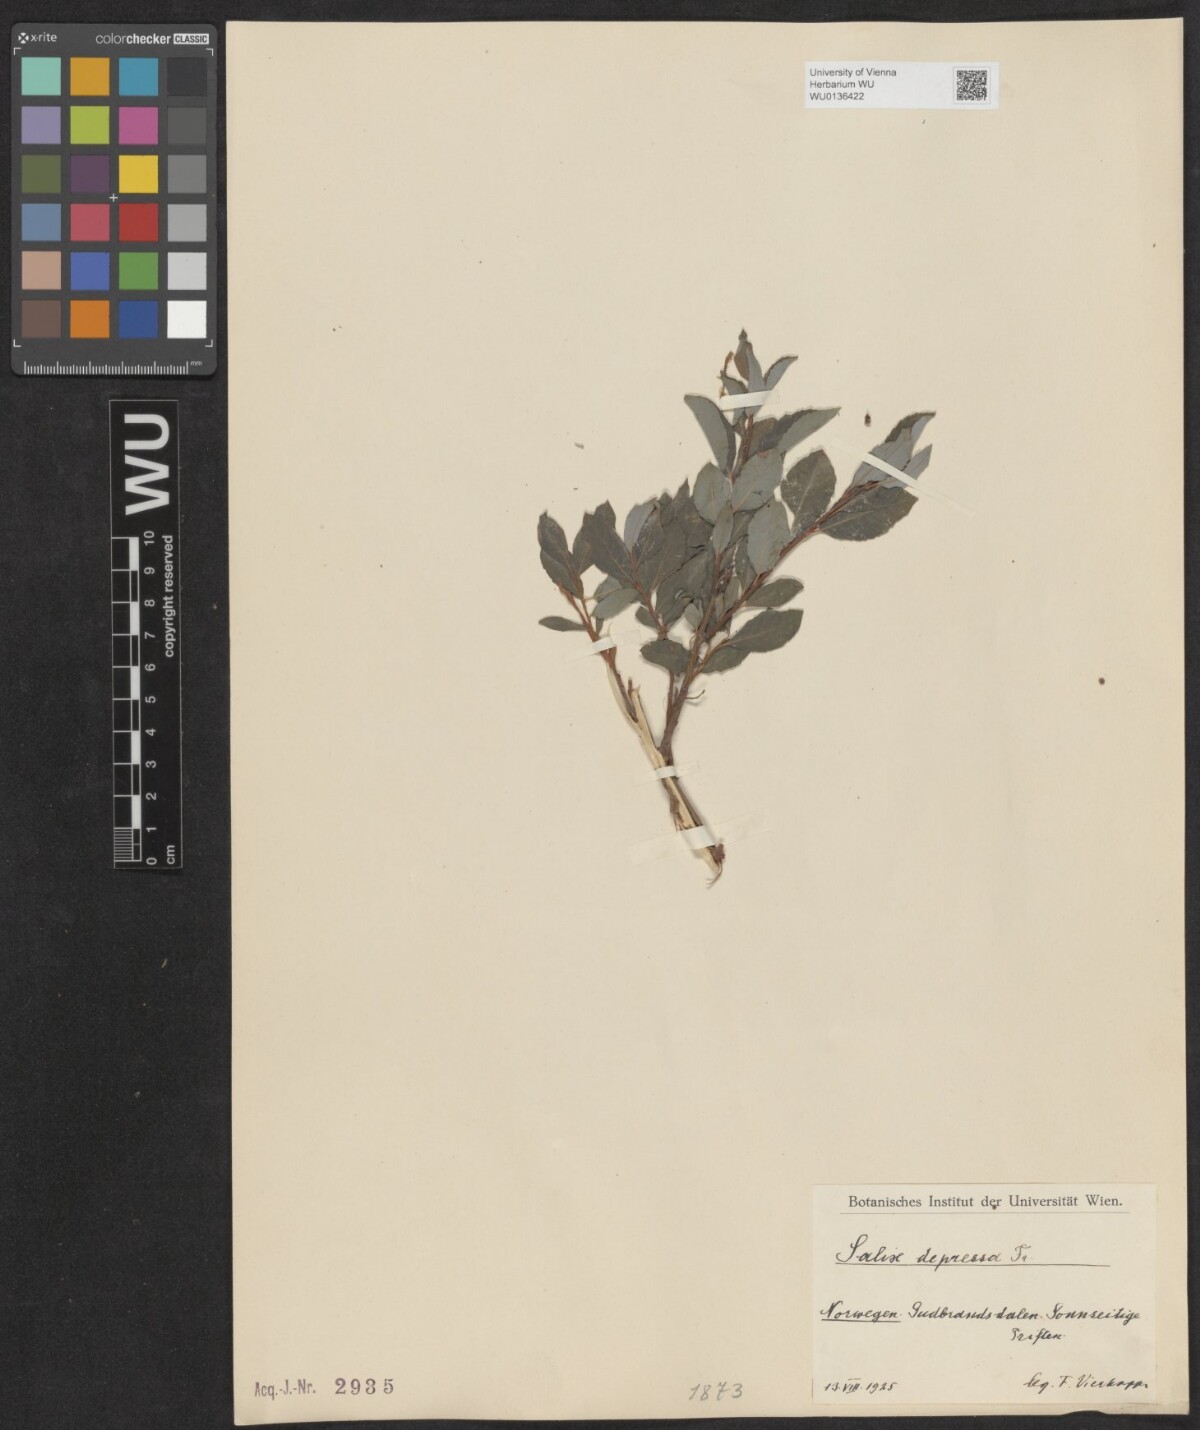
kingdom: Plantae
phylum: Tracheophyta
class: Magnoliopsida
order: Malpighiales
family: Salicaceae
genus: Salix
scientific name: Salix lanata
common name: Woolly willow
